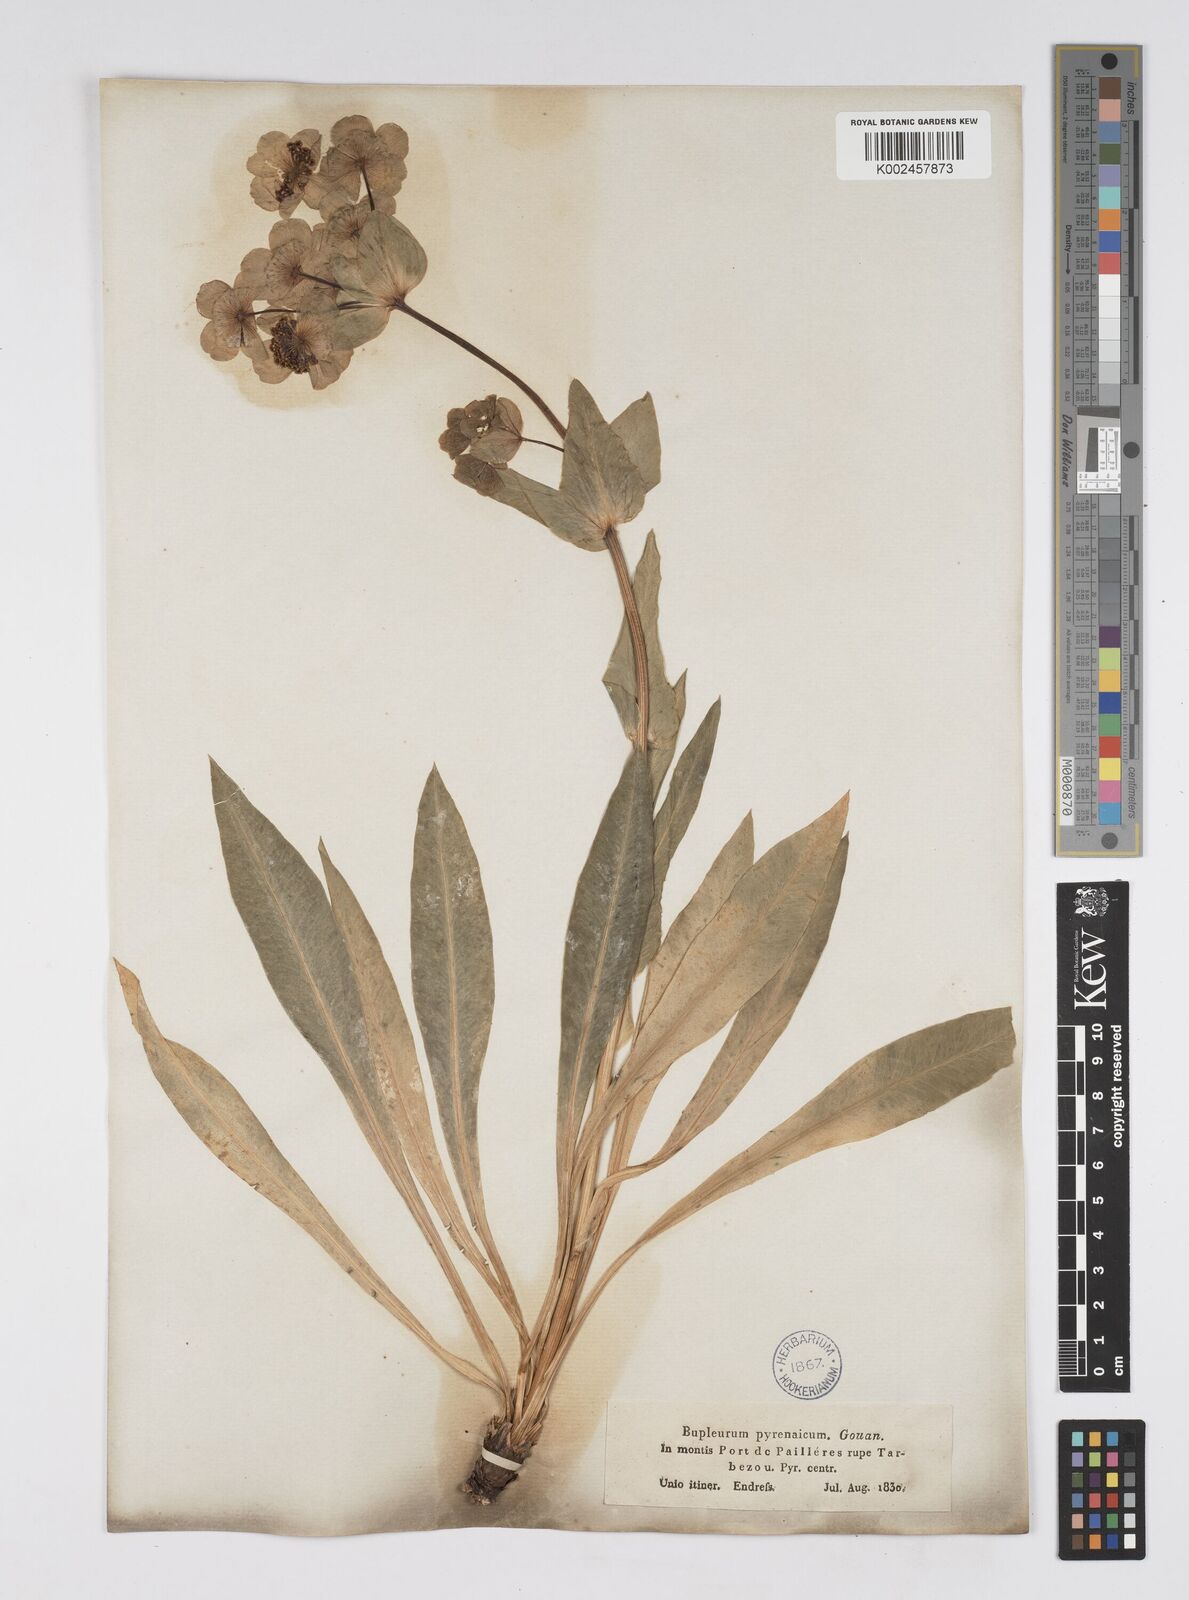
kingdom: Plantae
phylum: Tracheophyta
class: Magnoliopsida
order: Apiales
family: Apiaceae
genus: Bupleurum
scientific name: Bupleurum angulosum
